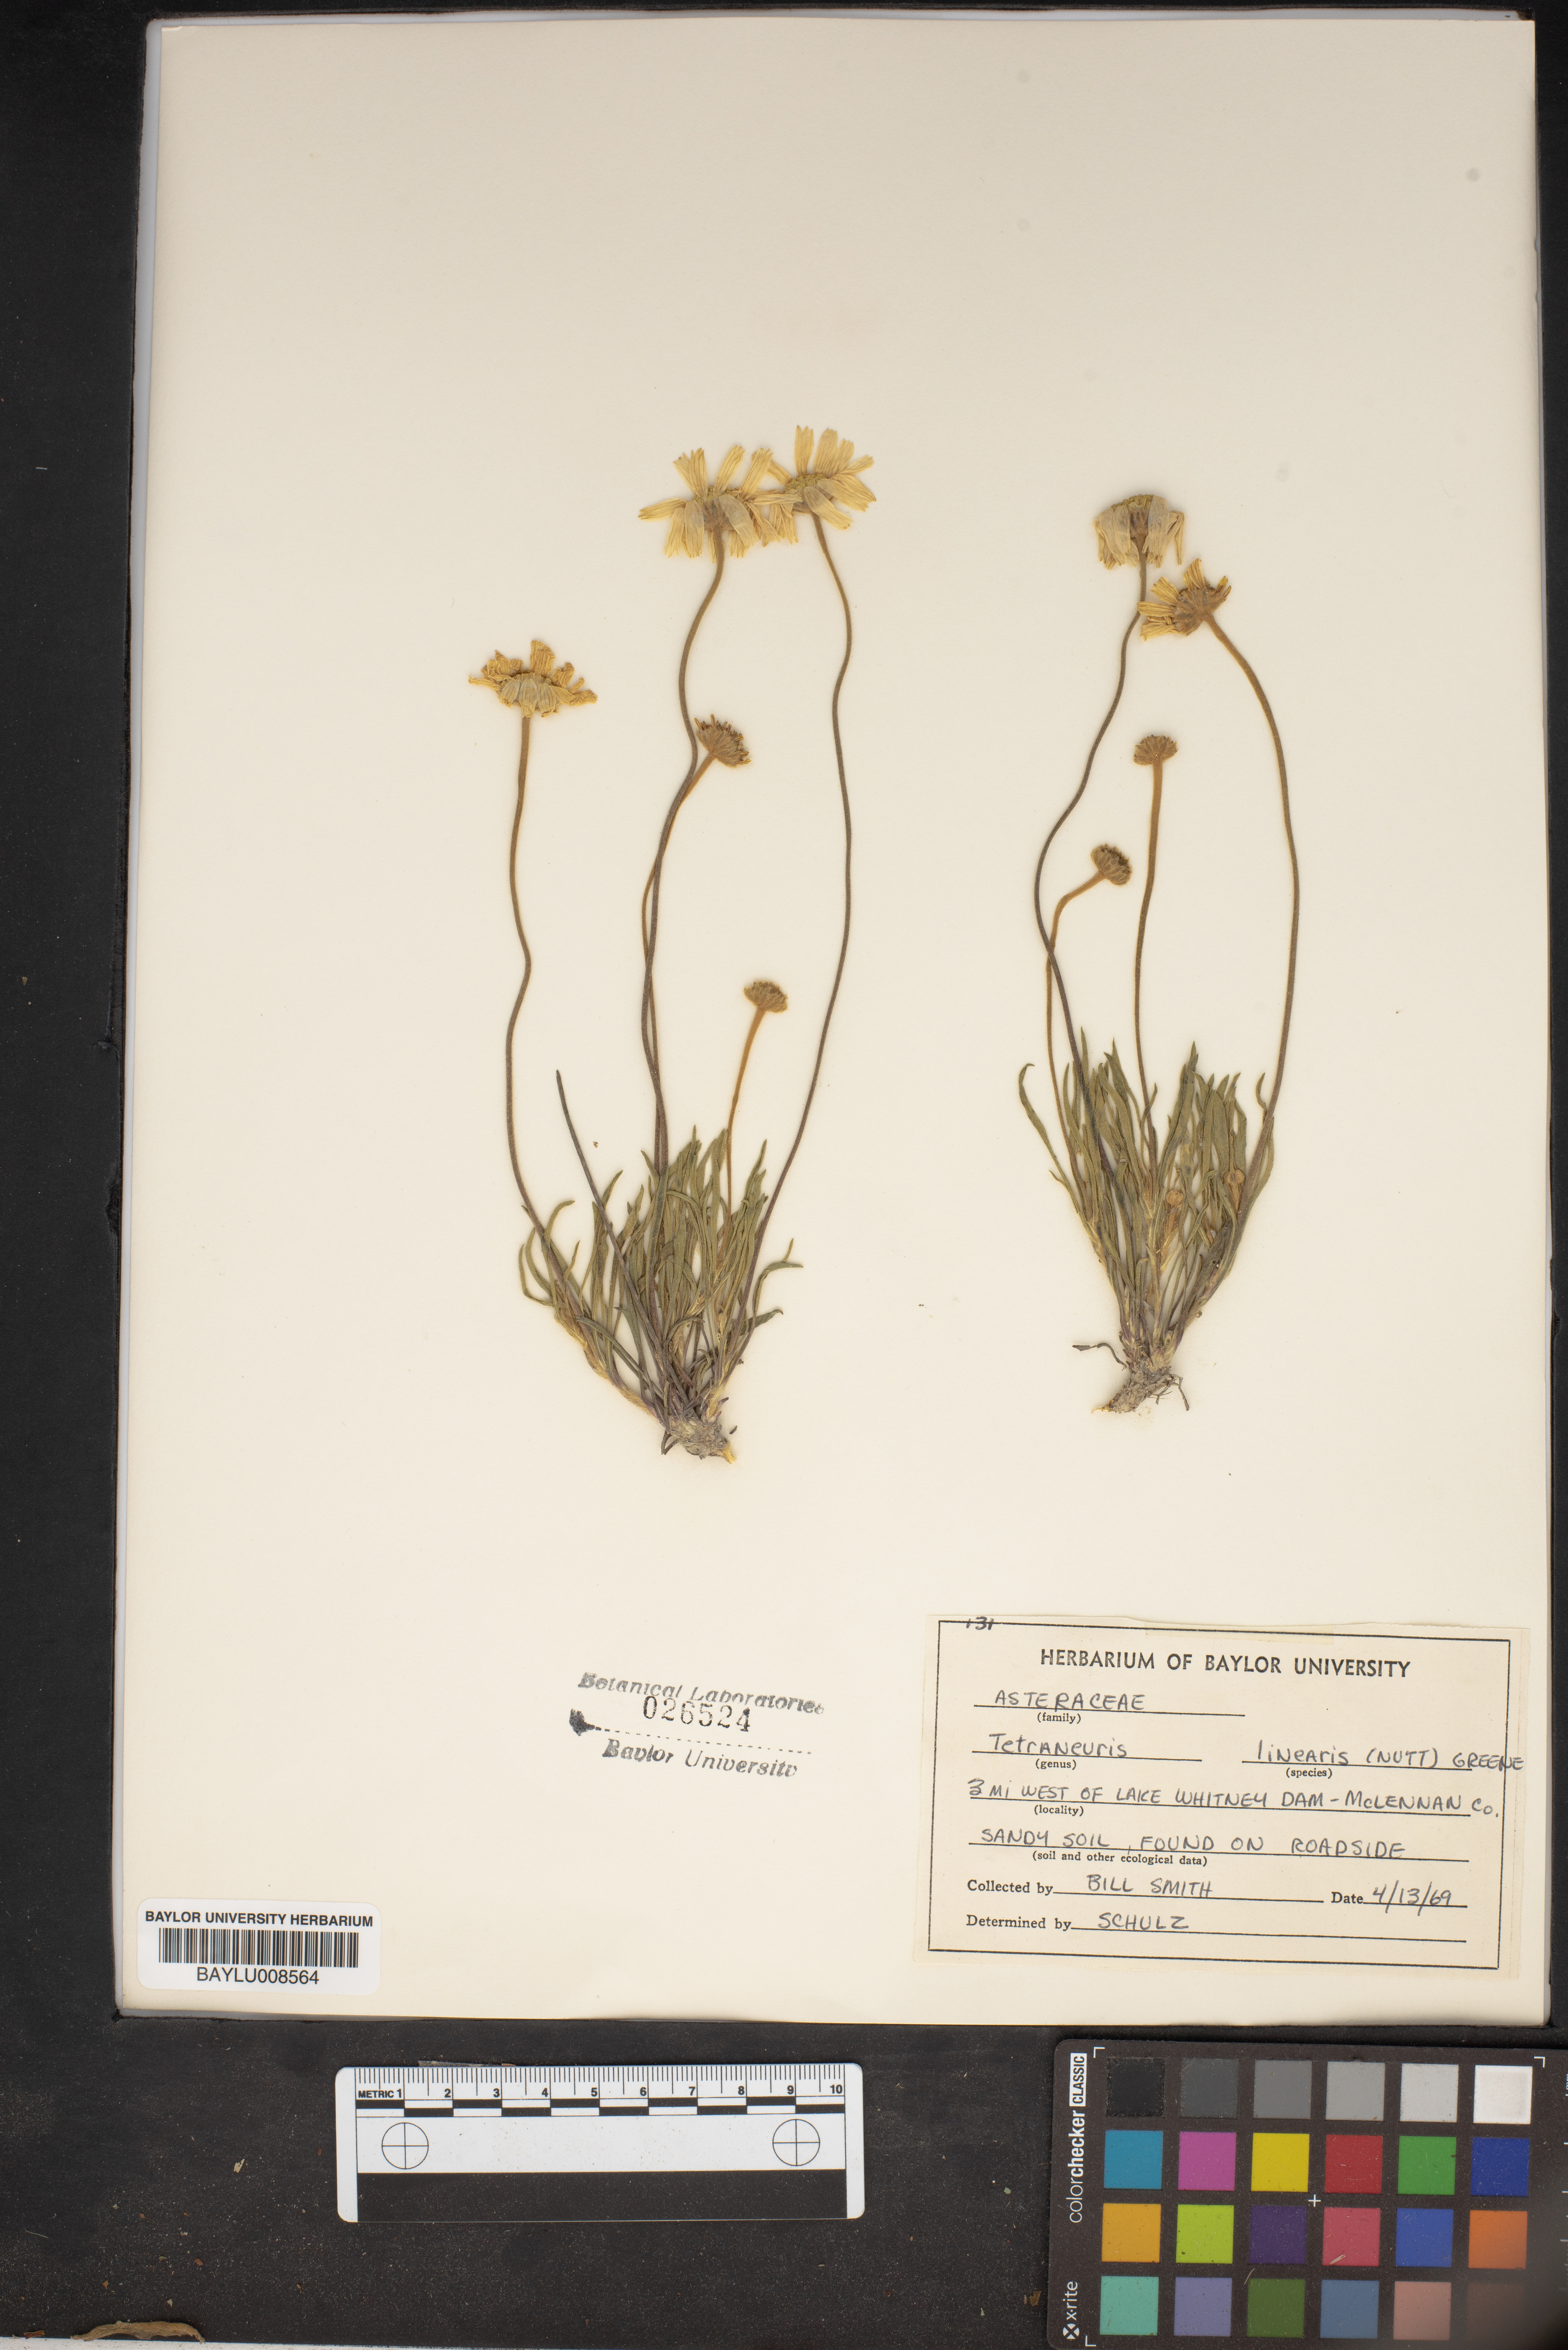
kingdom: Plantae
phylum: Tracheophyta
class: Magnoliopsida
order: Asterales
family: Asteraceae
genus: Tetraneuris
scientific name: Tetraneuris scaposa
